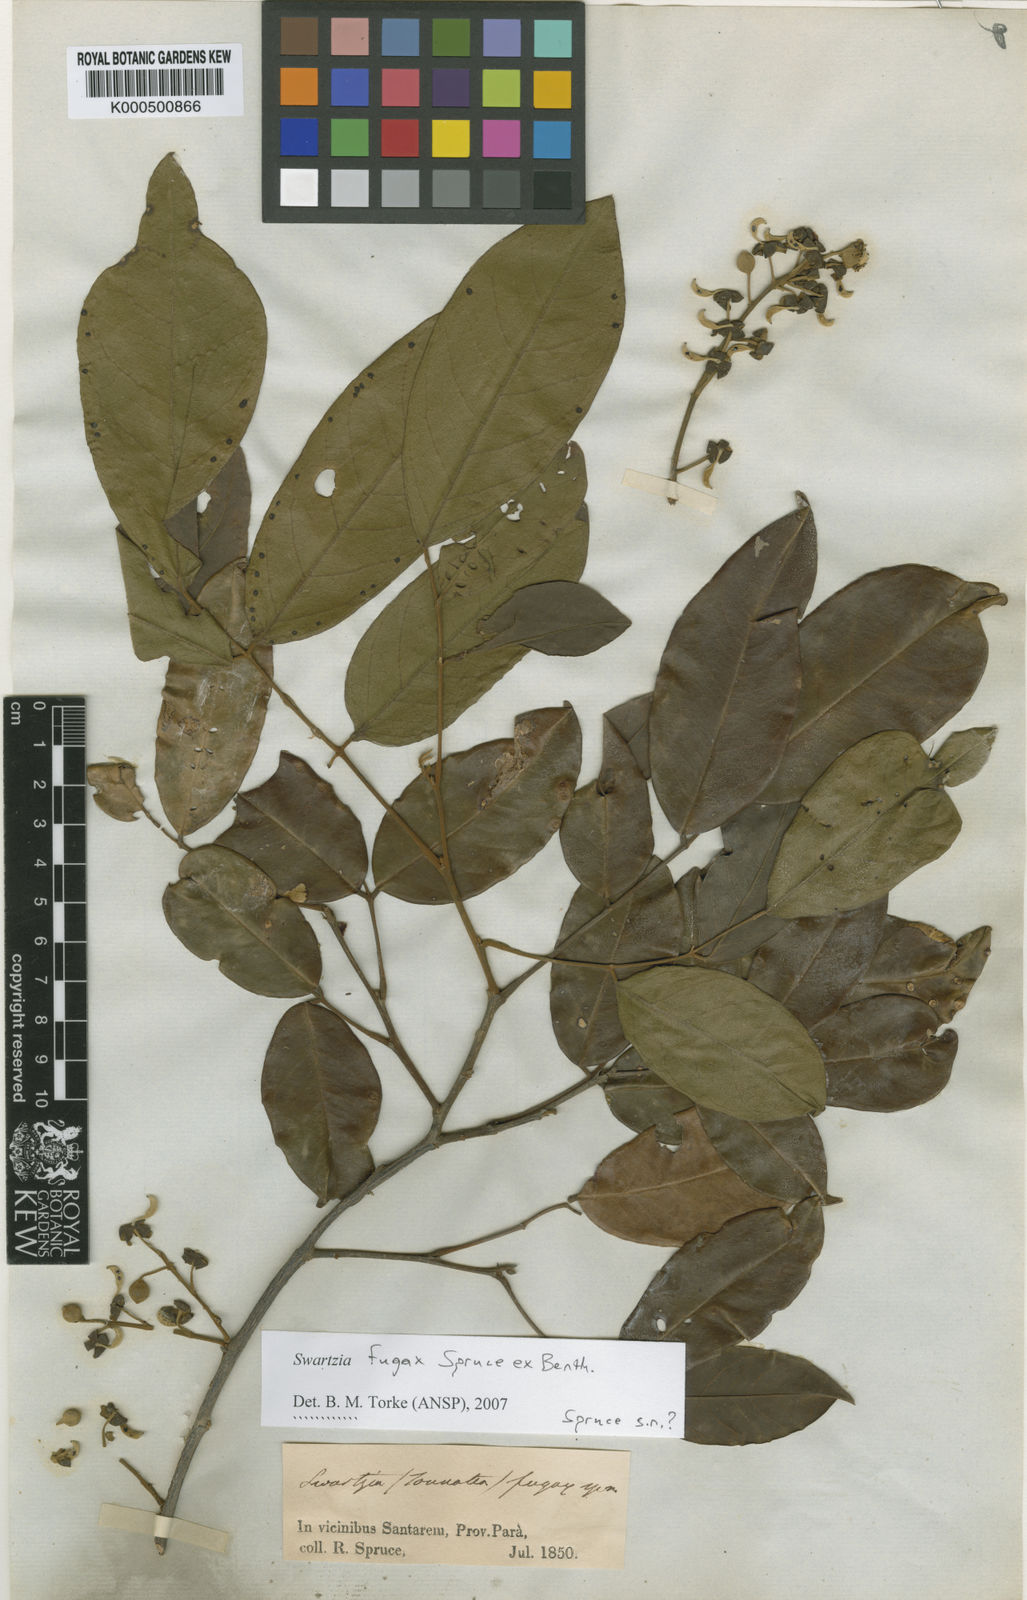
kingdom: Plantae
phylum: Tracheophyta
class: Magnoliopsida
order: Fabales
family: Fabaceae
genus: Swartzia
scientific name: Swartzia leptopetala
